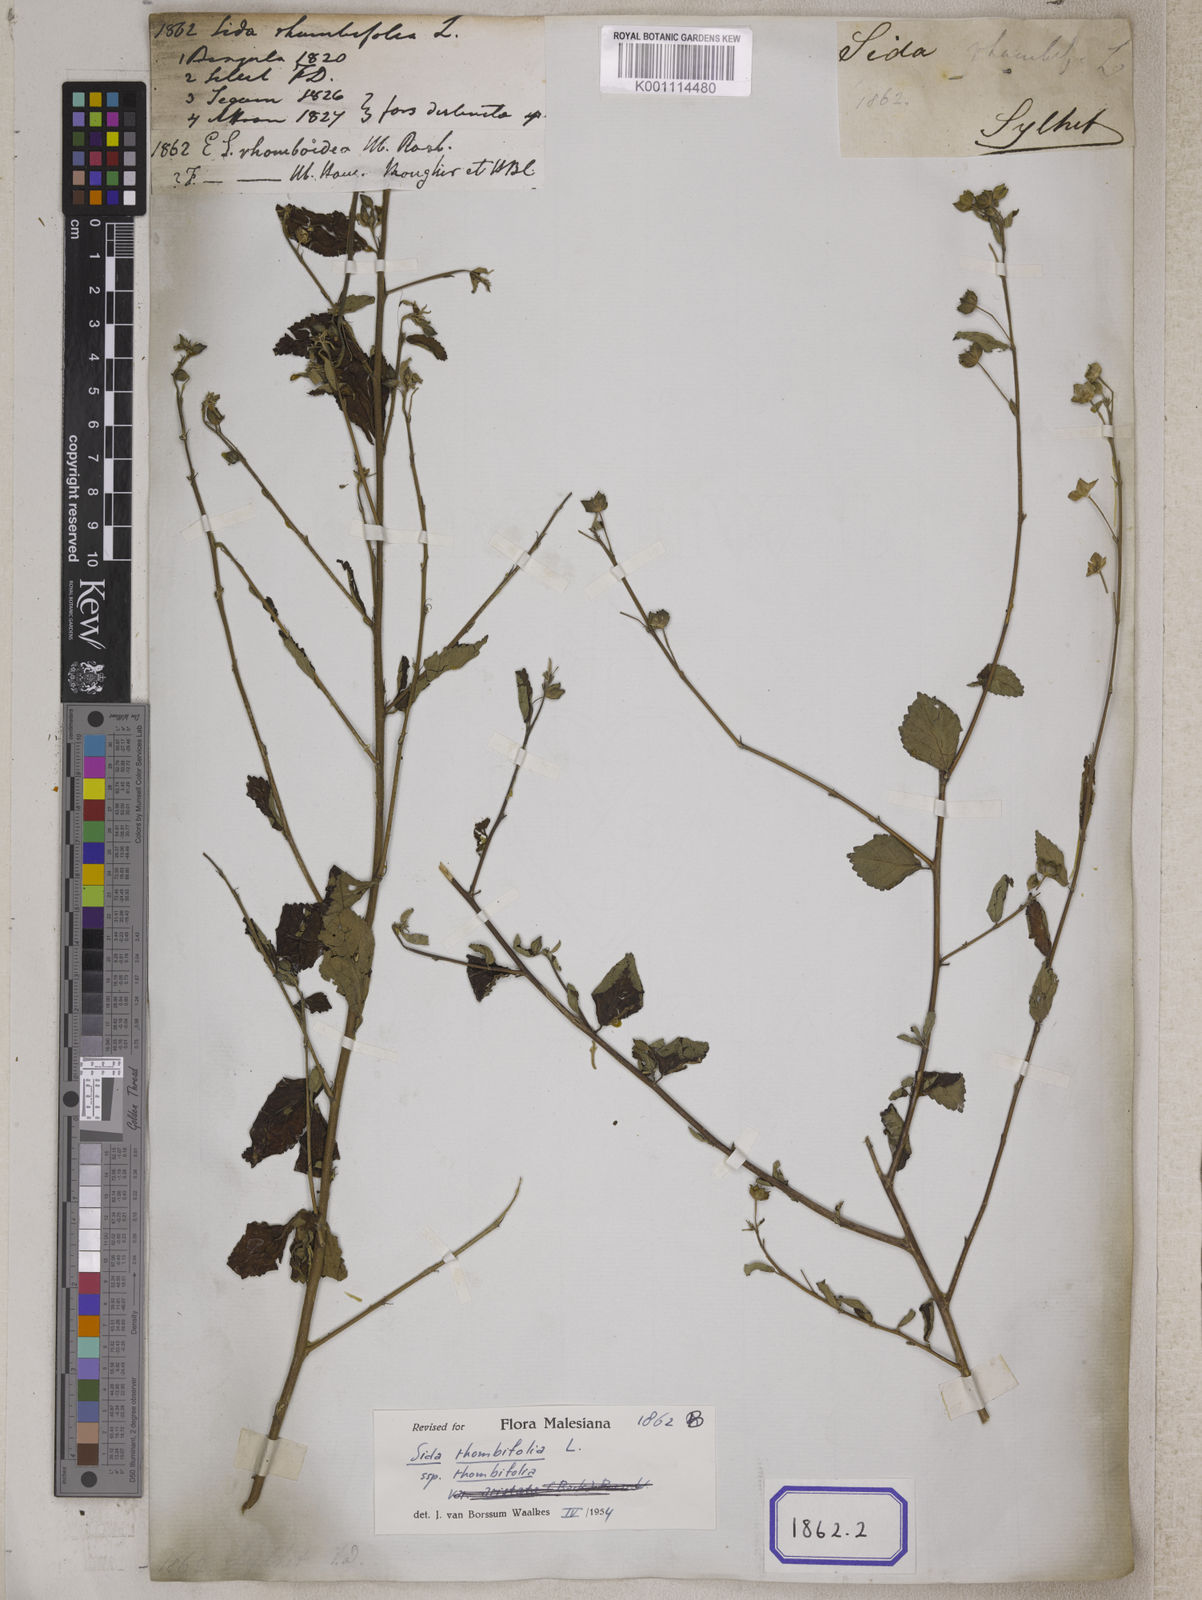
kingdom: Plantae
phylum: Tracheophyta
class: Magnoliopsida
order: Malvales
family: Malvaceae
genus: Sida
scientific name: Sida rhombifolia
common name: Queensland-hemp
